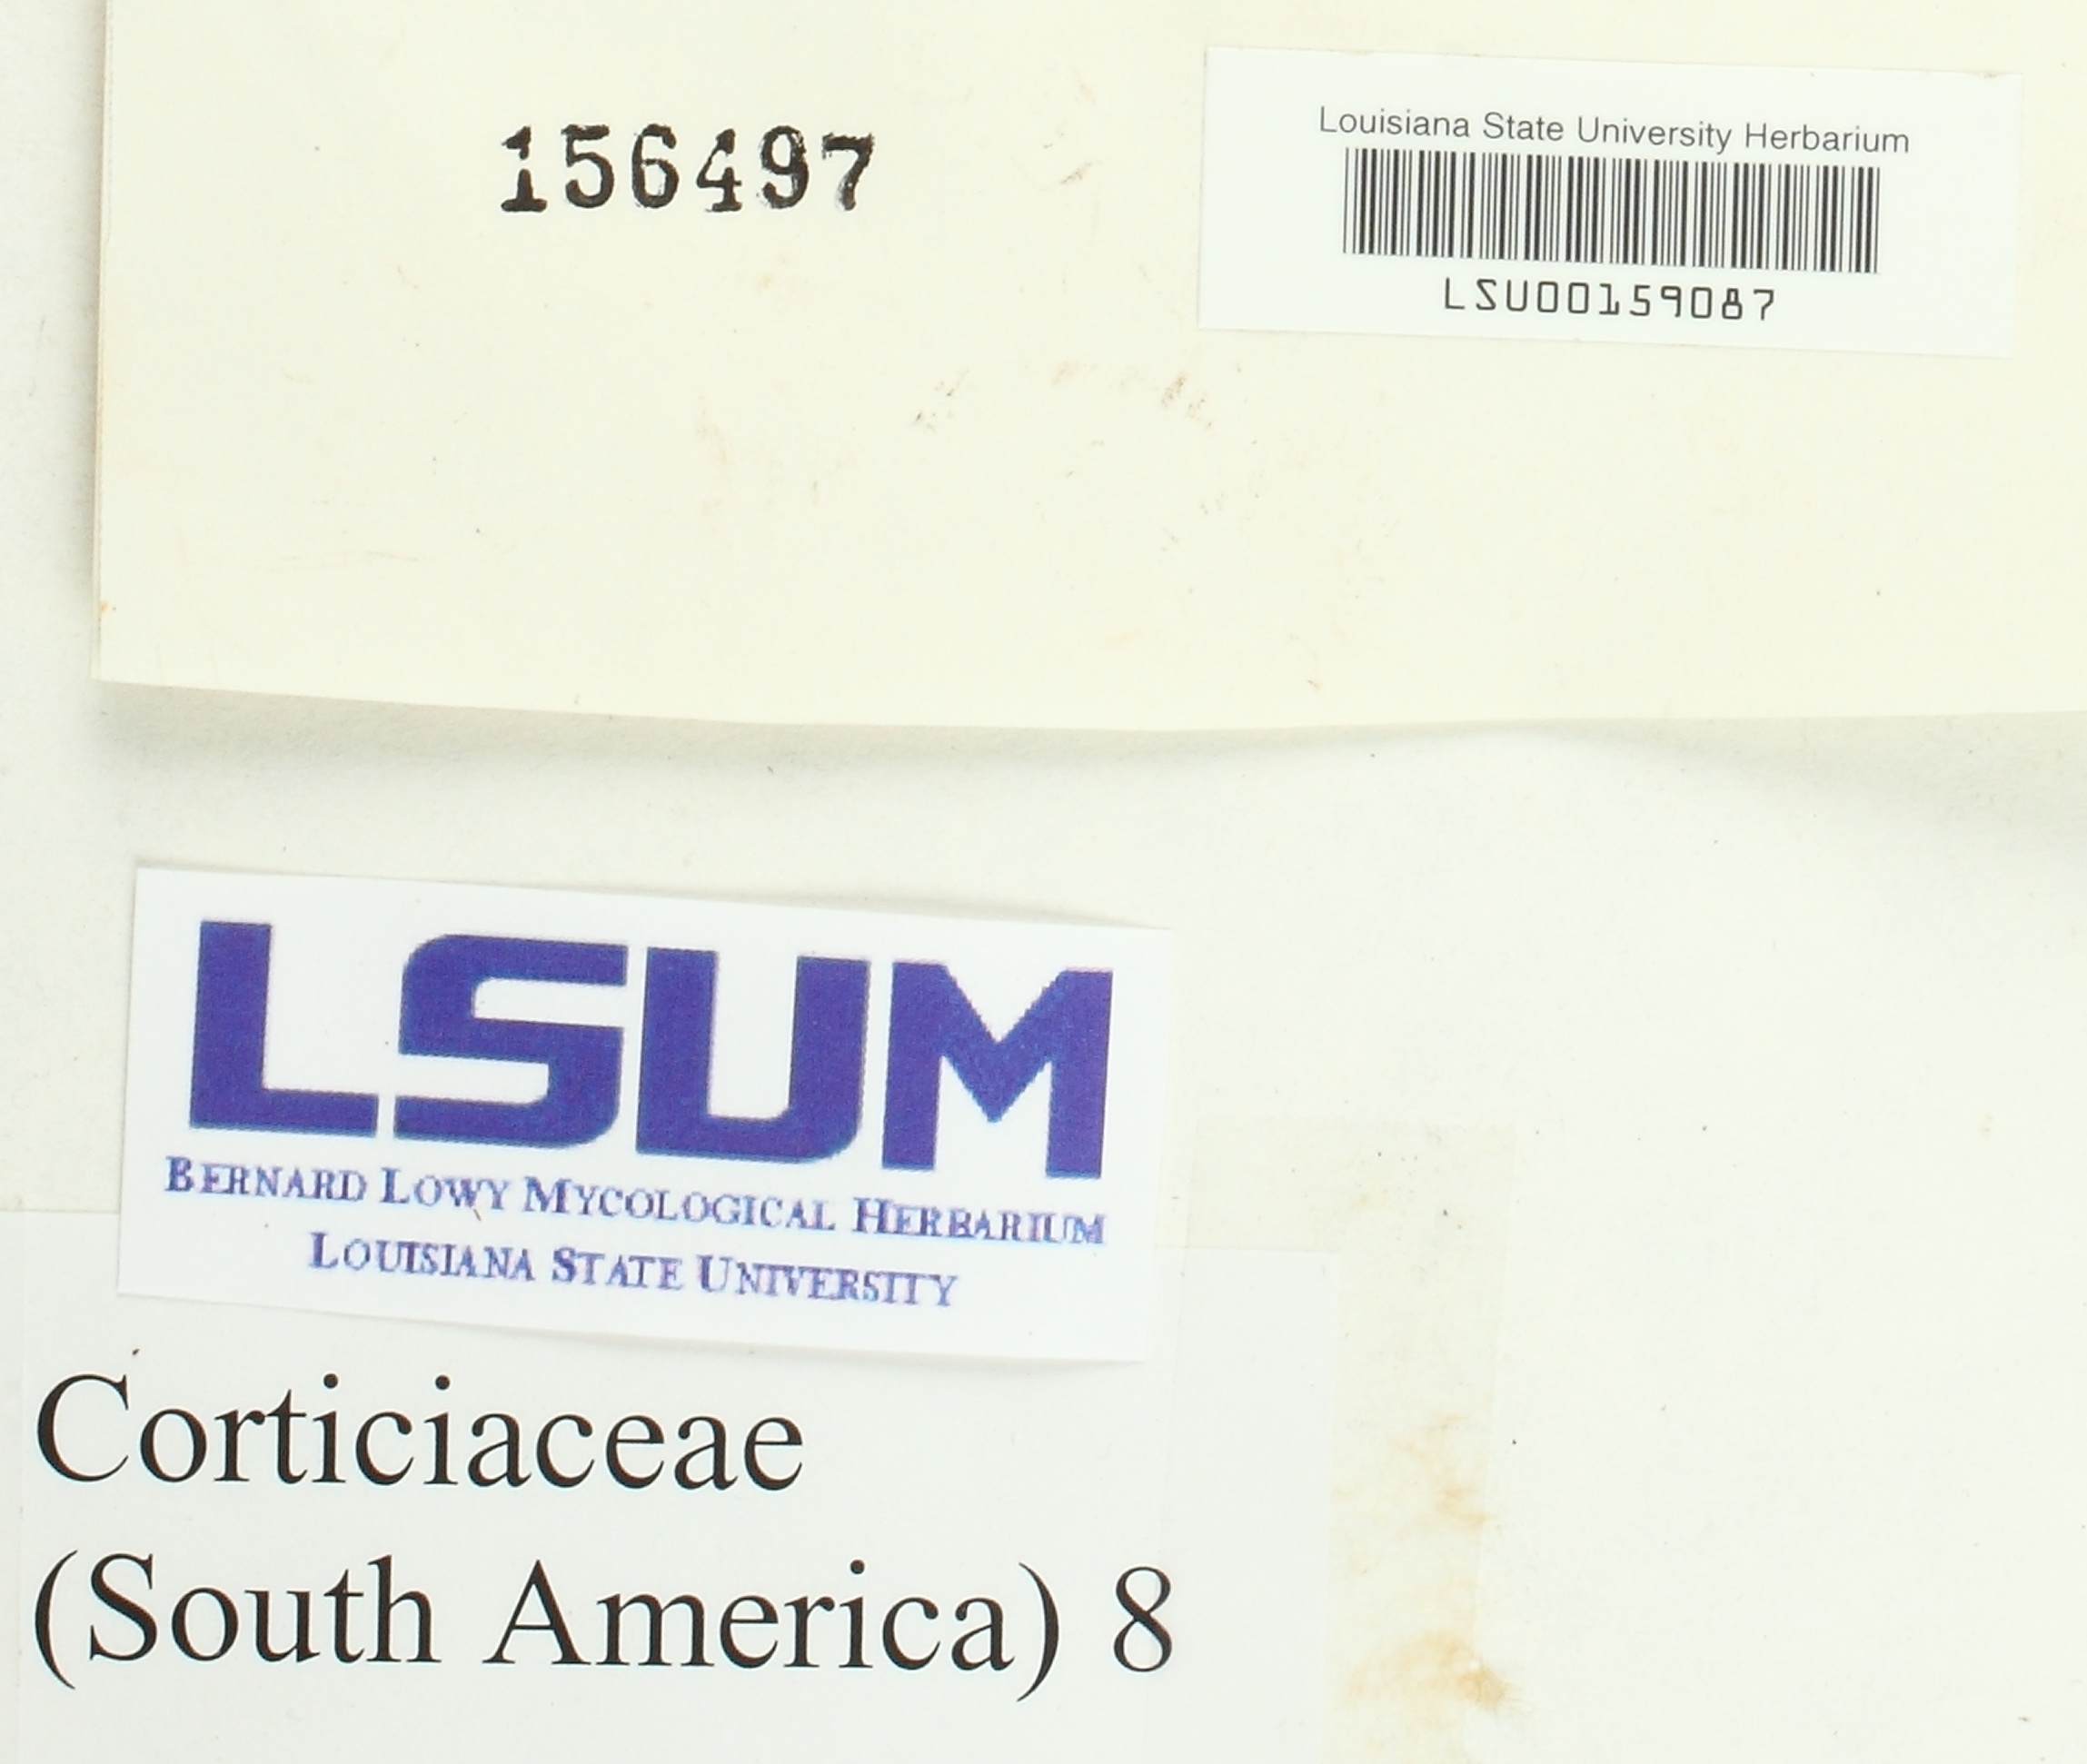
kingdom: Fungi
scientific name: Fungi
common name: Fungi
